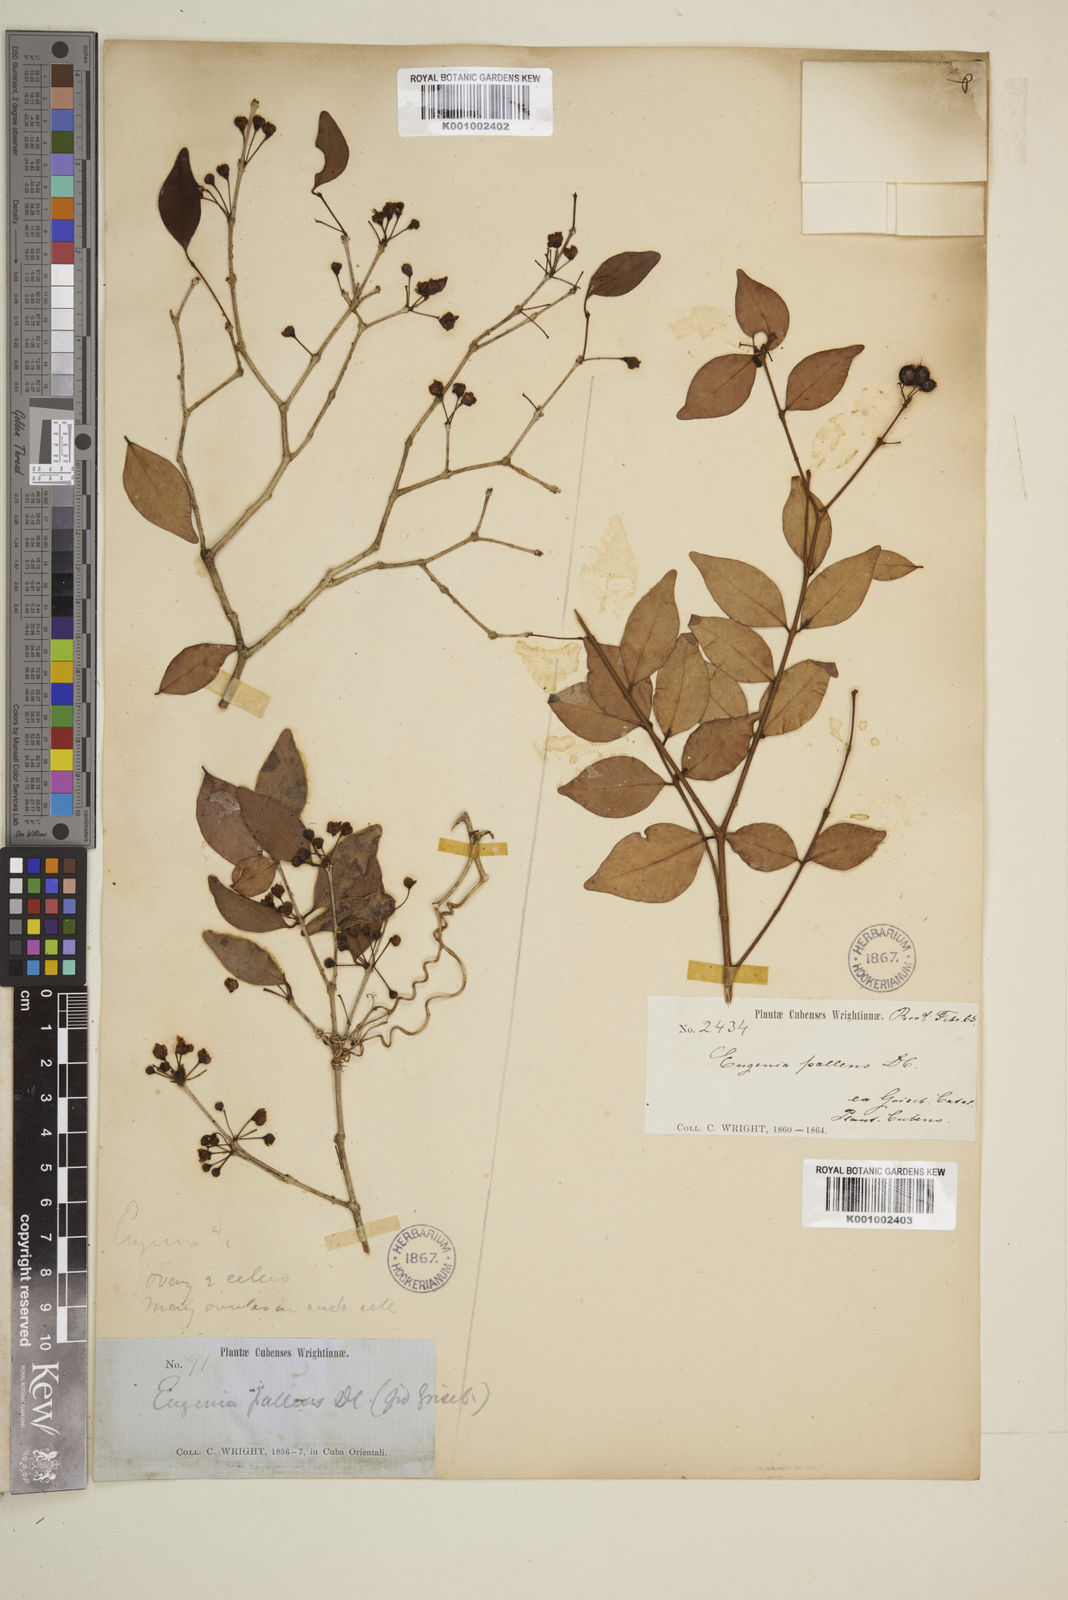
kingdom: Plantae
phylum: Tracheophyta
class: Magnoliopsida
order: Myrtales
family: Myrtaceae
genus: Eugenia
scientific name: Eugenia biflora
